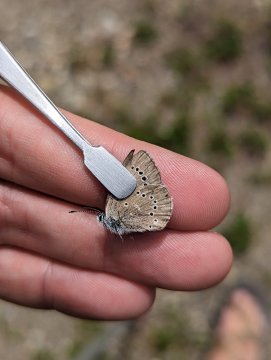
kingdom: Animalia
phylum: Arthropoda
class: Insecta
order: Lepidoptera
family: Lycaenidae
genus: Glaucopsyche
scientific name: Glaucopsyche lygdamus
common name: Silvery Blue
